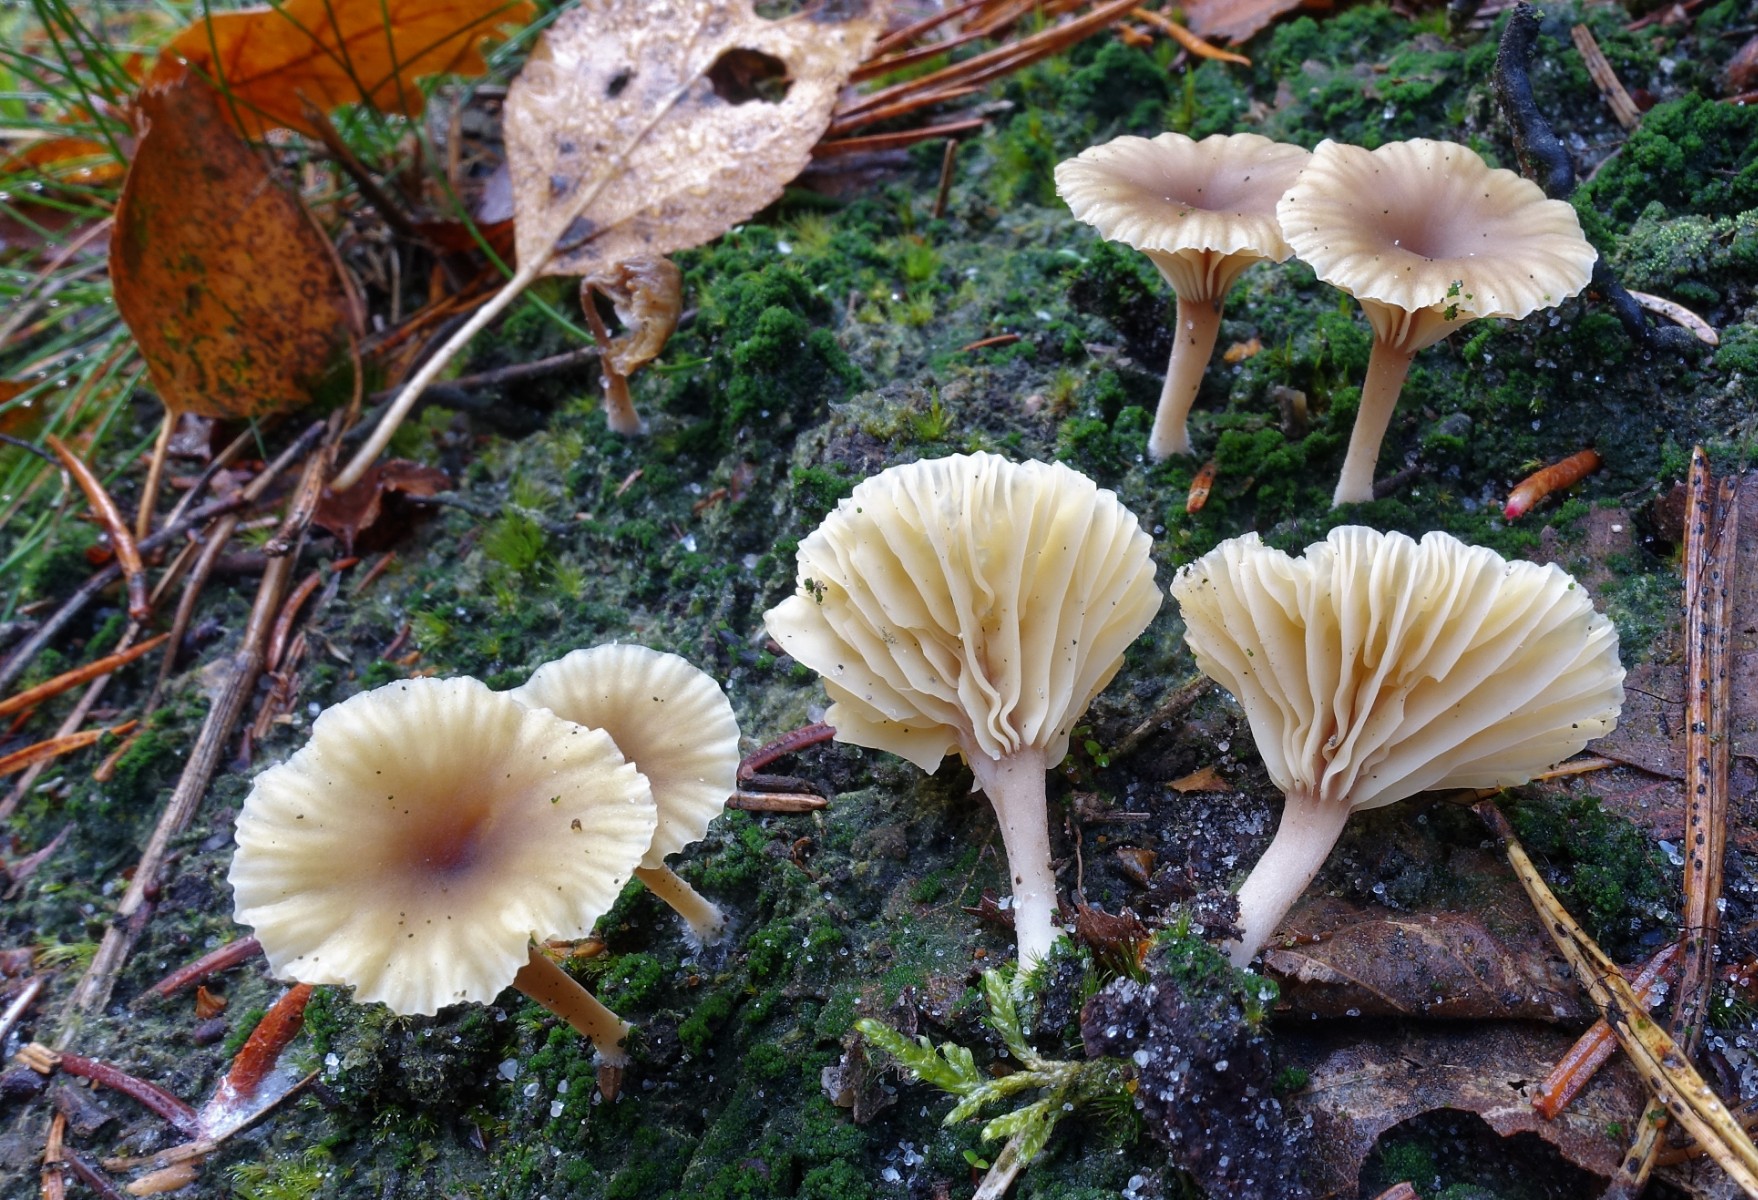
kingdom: Fungi
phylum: Basidiomycota
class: Agaricomycetes
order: Agaricales
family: Hygrophoraceae
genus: Lichenomphalia
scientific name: Lichenomphalia umbellifera
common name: tørve-lavhat
